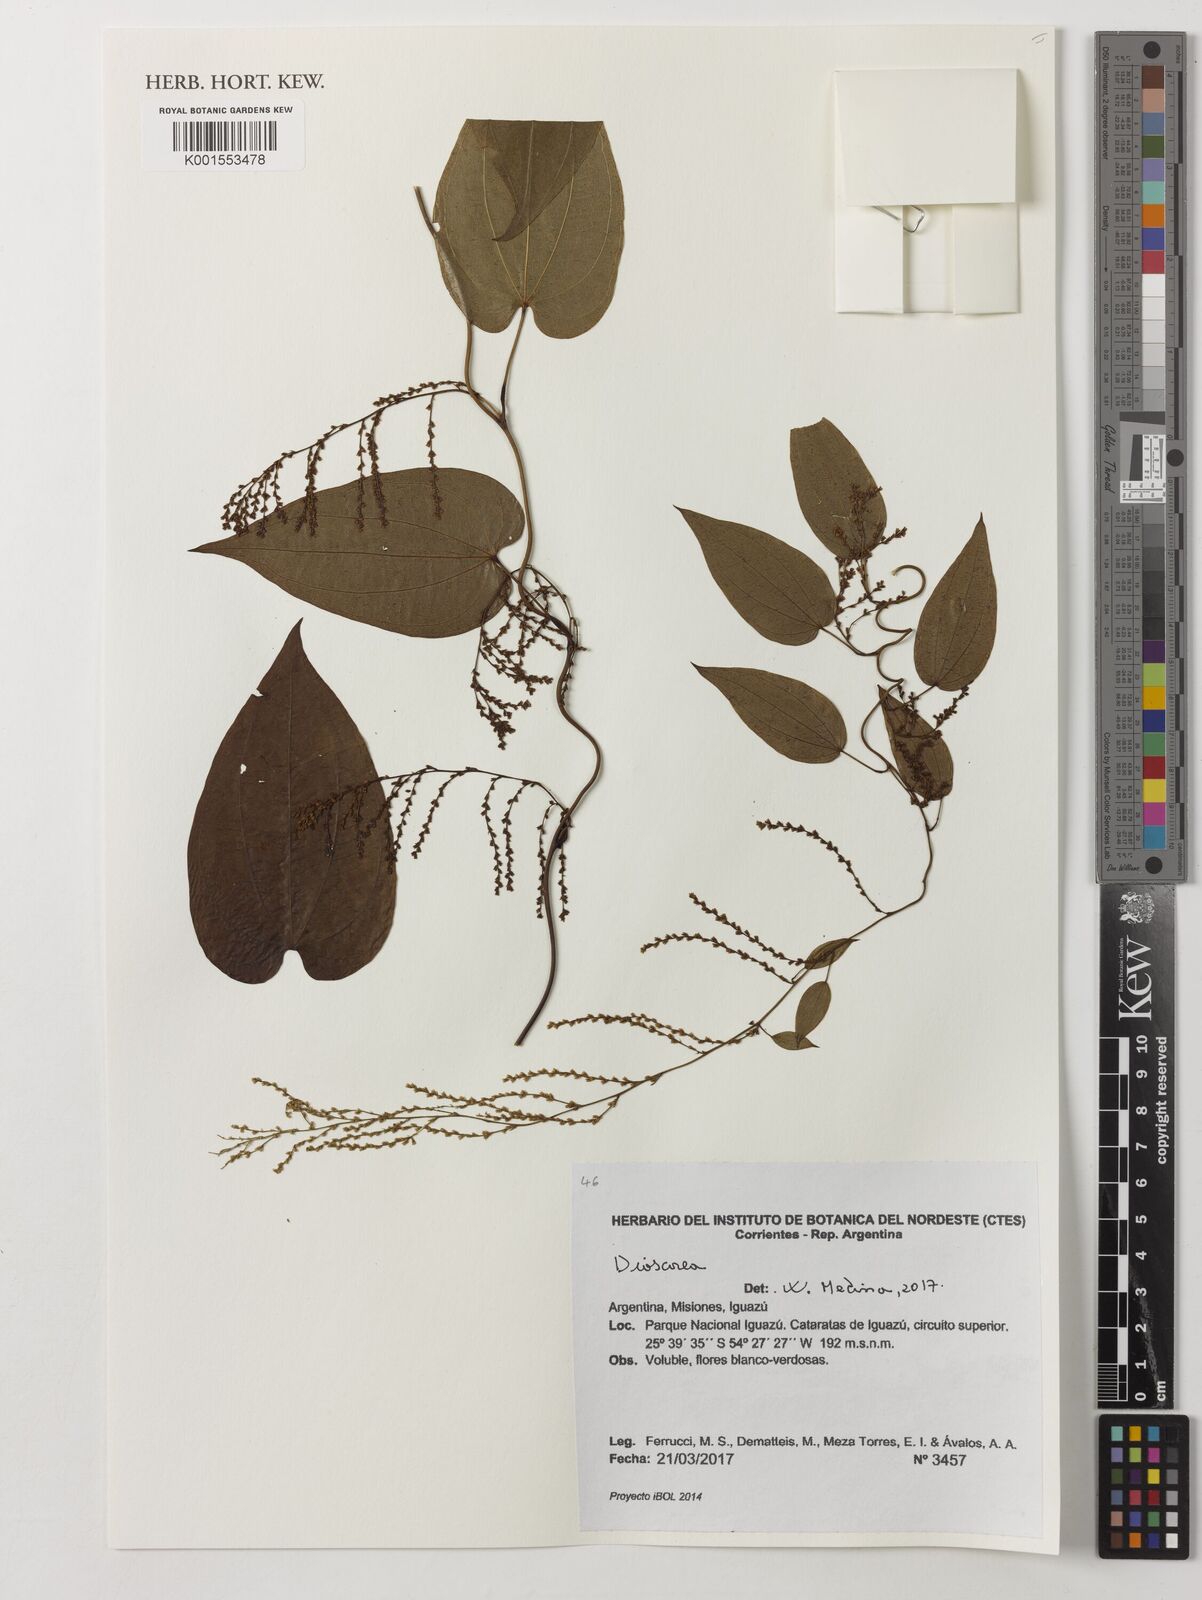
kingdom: Plantae
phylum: Tracheophyta
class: Liliopsida
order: Dioscoreales
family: Dioscoreaceae
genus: Dioscorea
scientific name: Dioscorea
